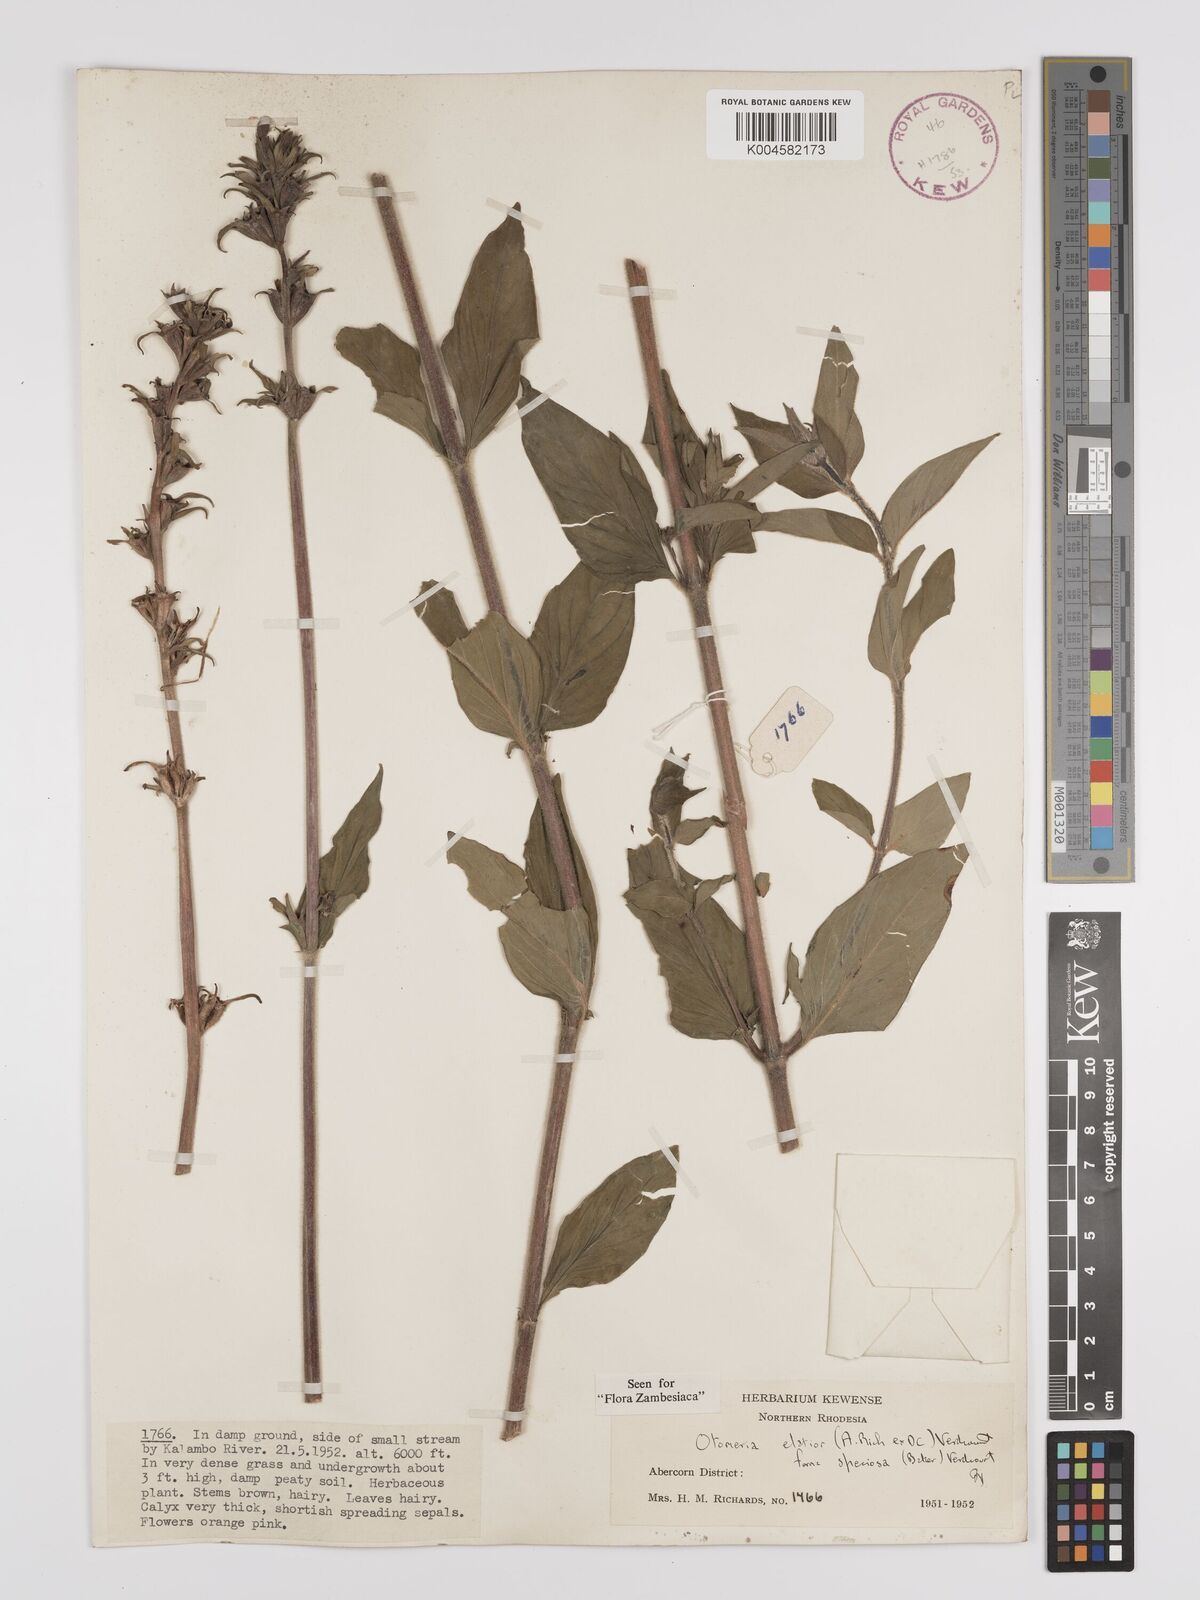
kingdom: Plantae
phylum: Tracheophyta
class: Magnoliopsida
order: Gentianales
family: Rubiaceae
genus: Otomeria
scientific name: Otomeria elatior
